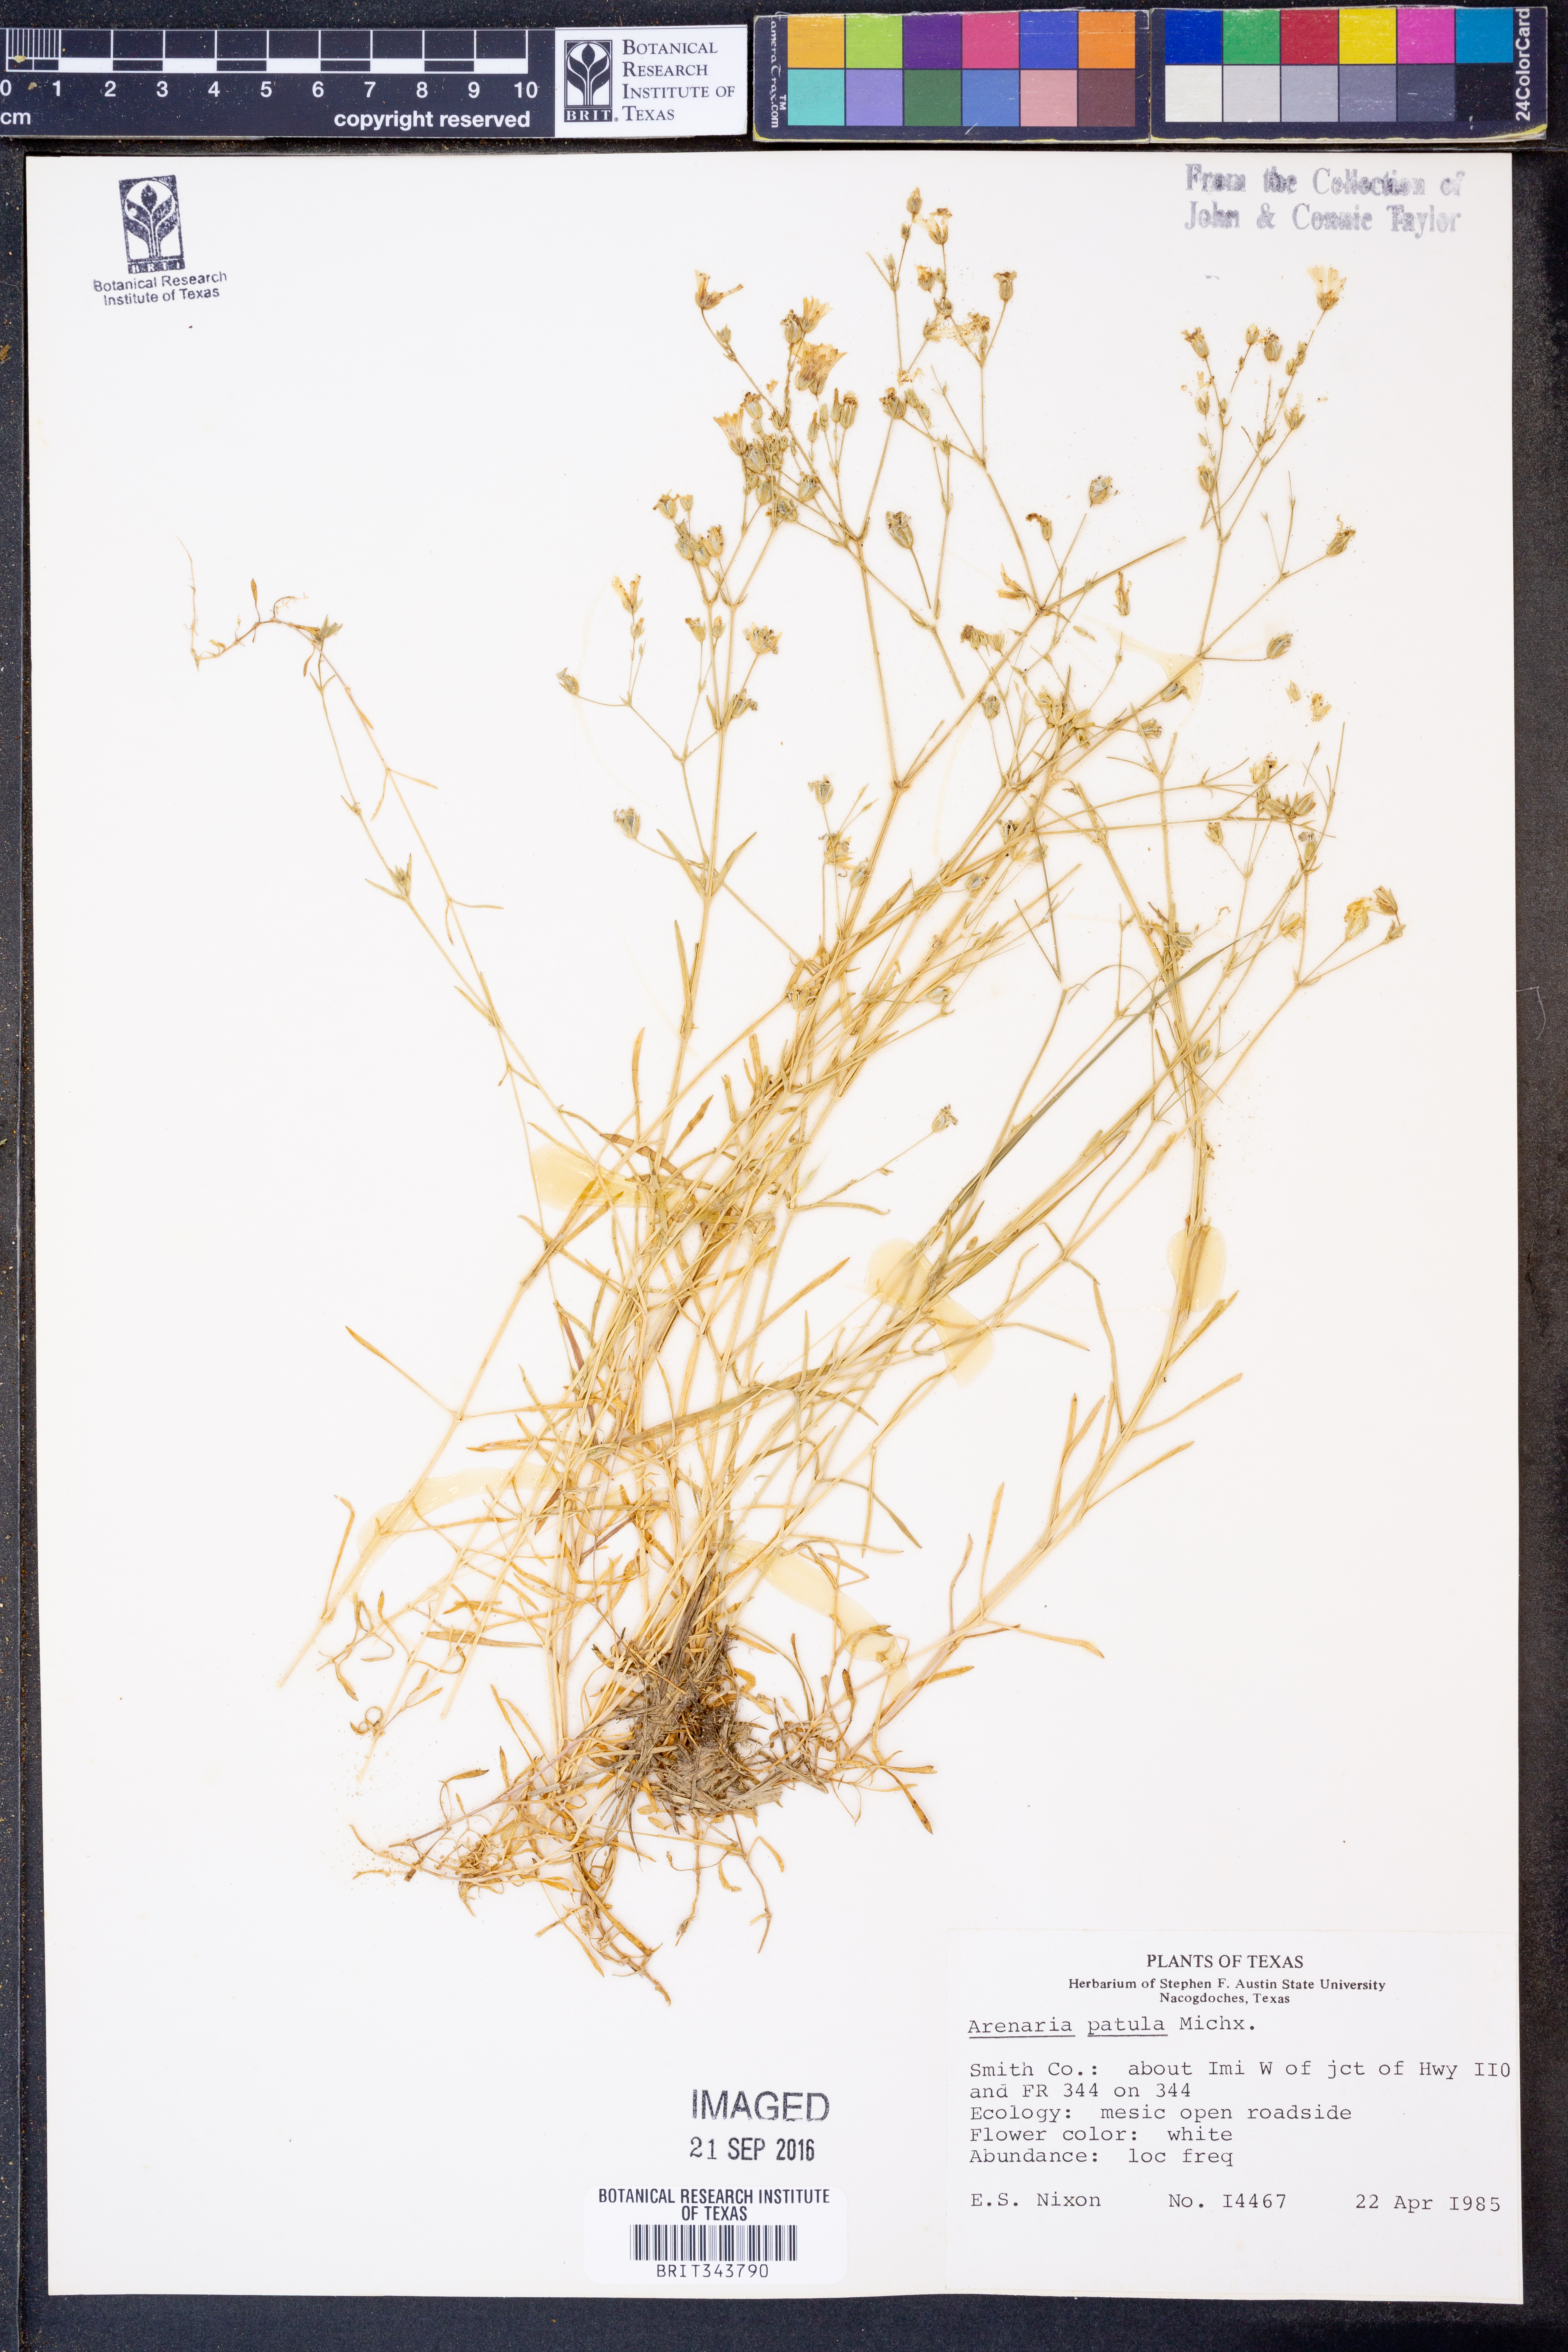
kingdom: Plantae
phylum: Tracheophyta
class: Magnoliopsida
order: Caryophyllales
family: Caryophyllaceae
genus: Mononeuria
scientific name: Mononeuria patula
